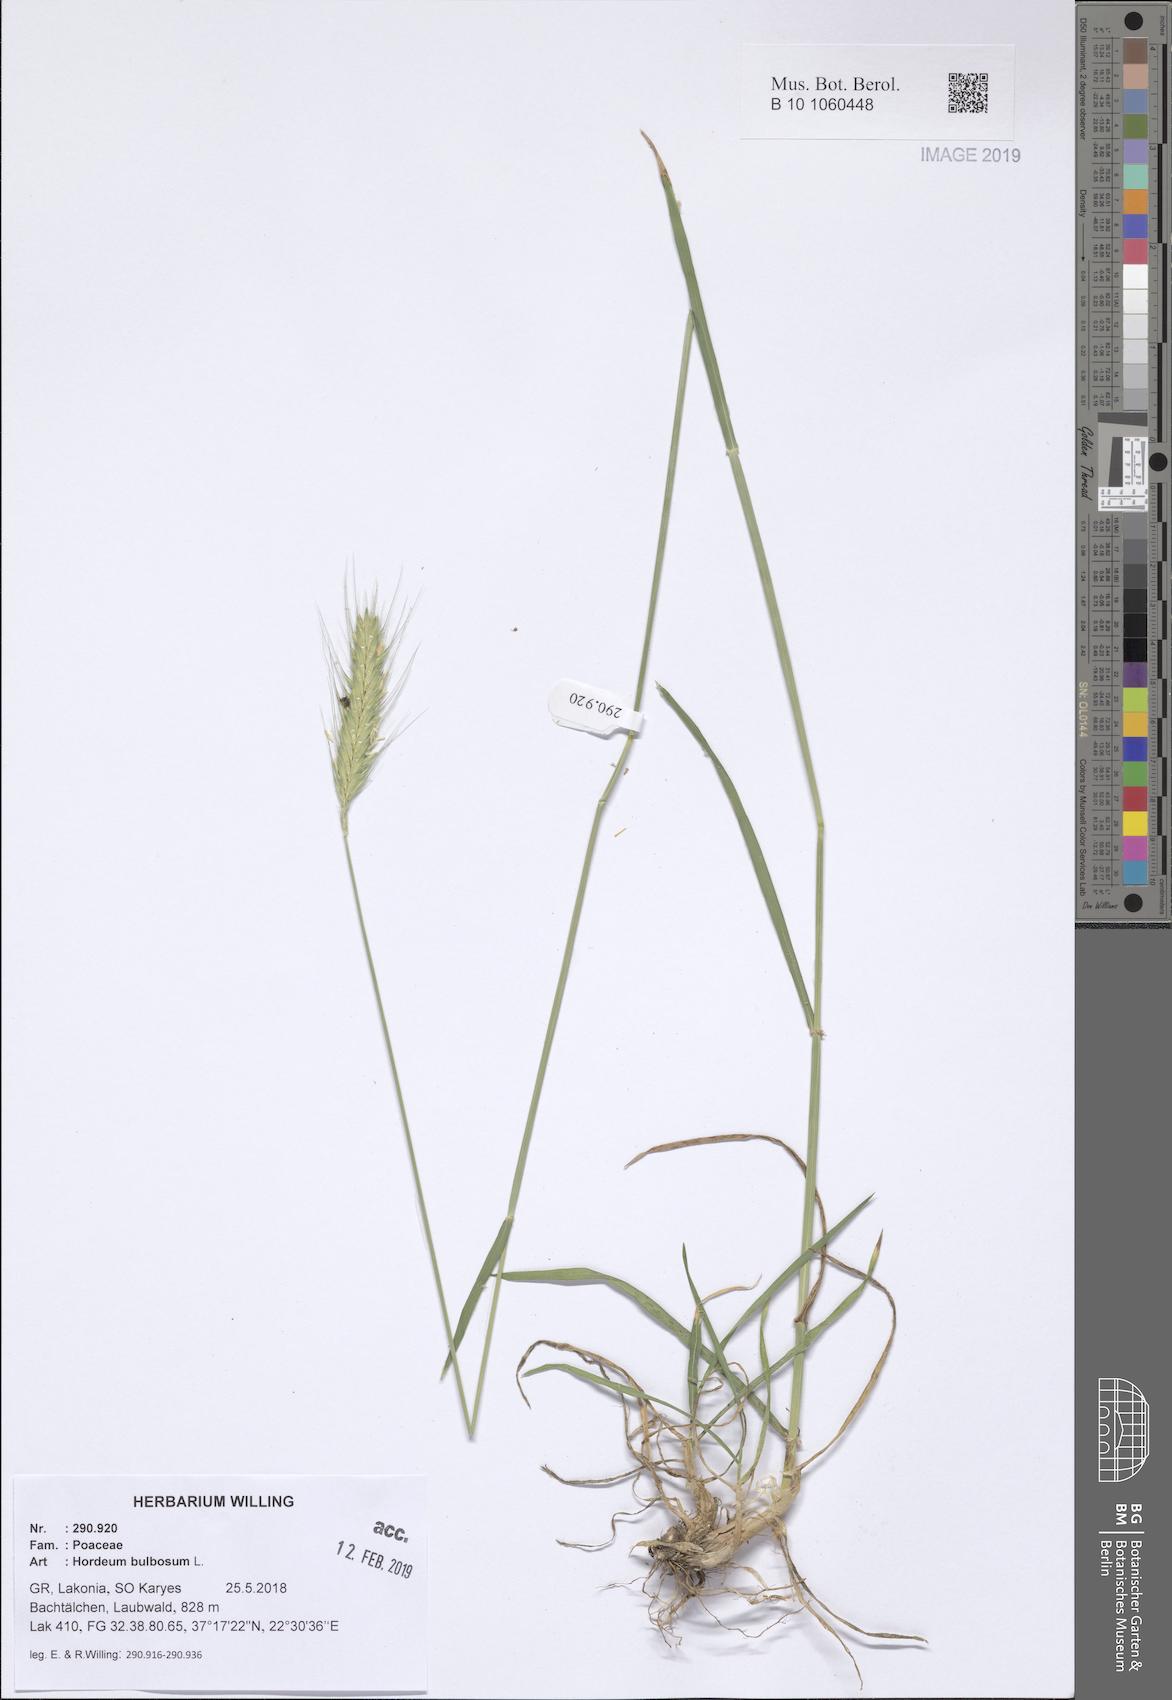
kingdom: Plantae
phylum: Tracheophyta
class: Liliopsida
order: Poales
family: Poaceae
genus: Hordeum
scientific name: Hordeum bulbosum
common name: Bulbous barley
